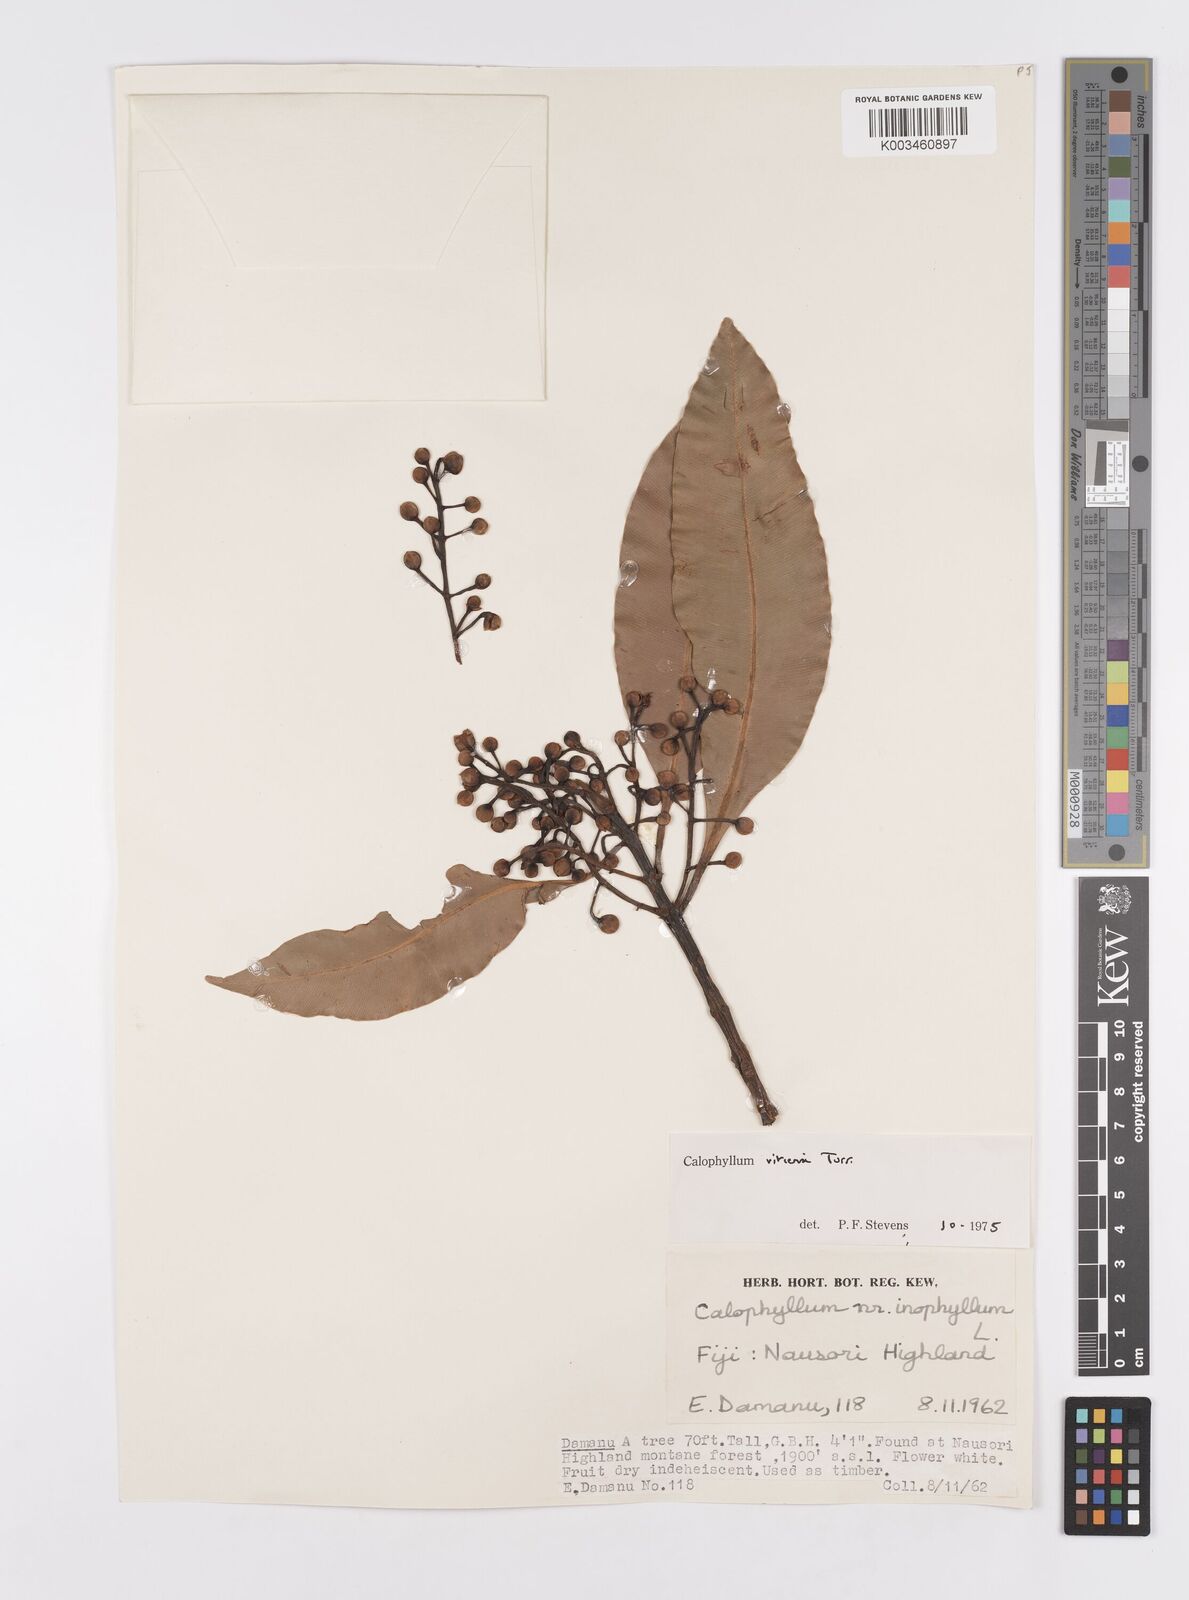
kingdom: Plantae
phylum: Tracheophyta
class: Magnoliopsida
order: Malpighiales
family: Calophyllaceae
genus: Calophyllum
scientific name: Calophyllum vitiense
